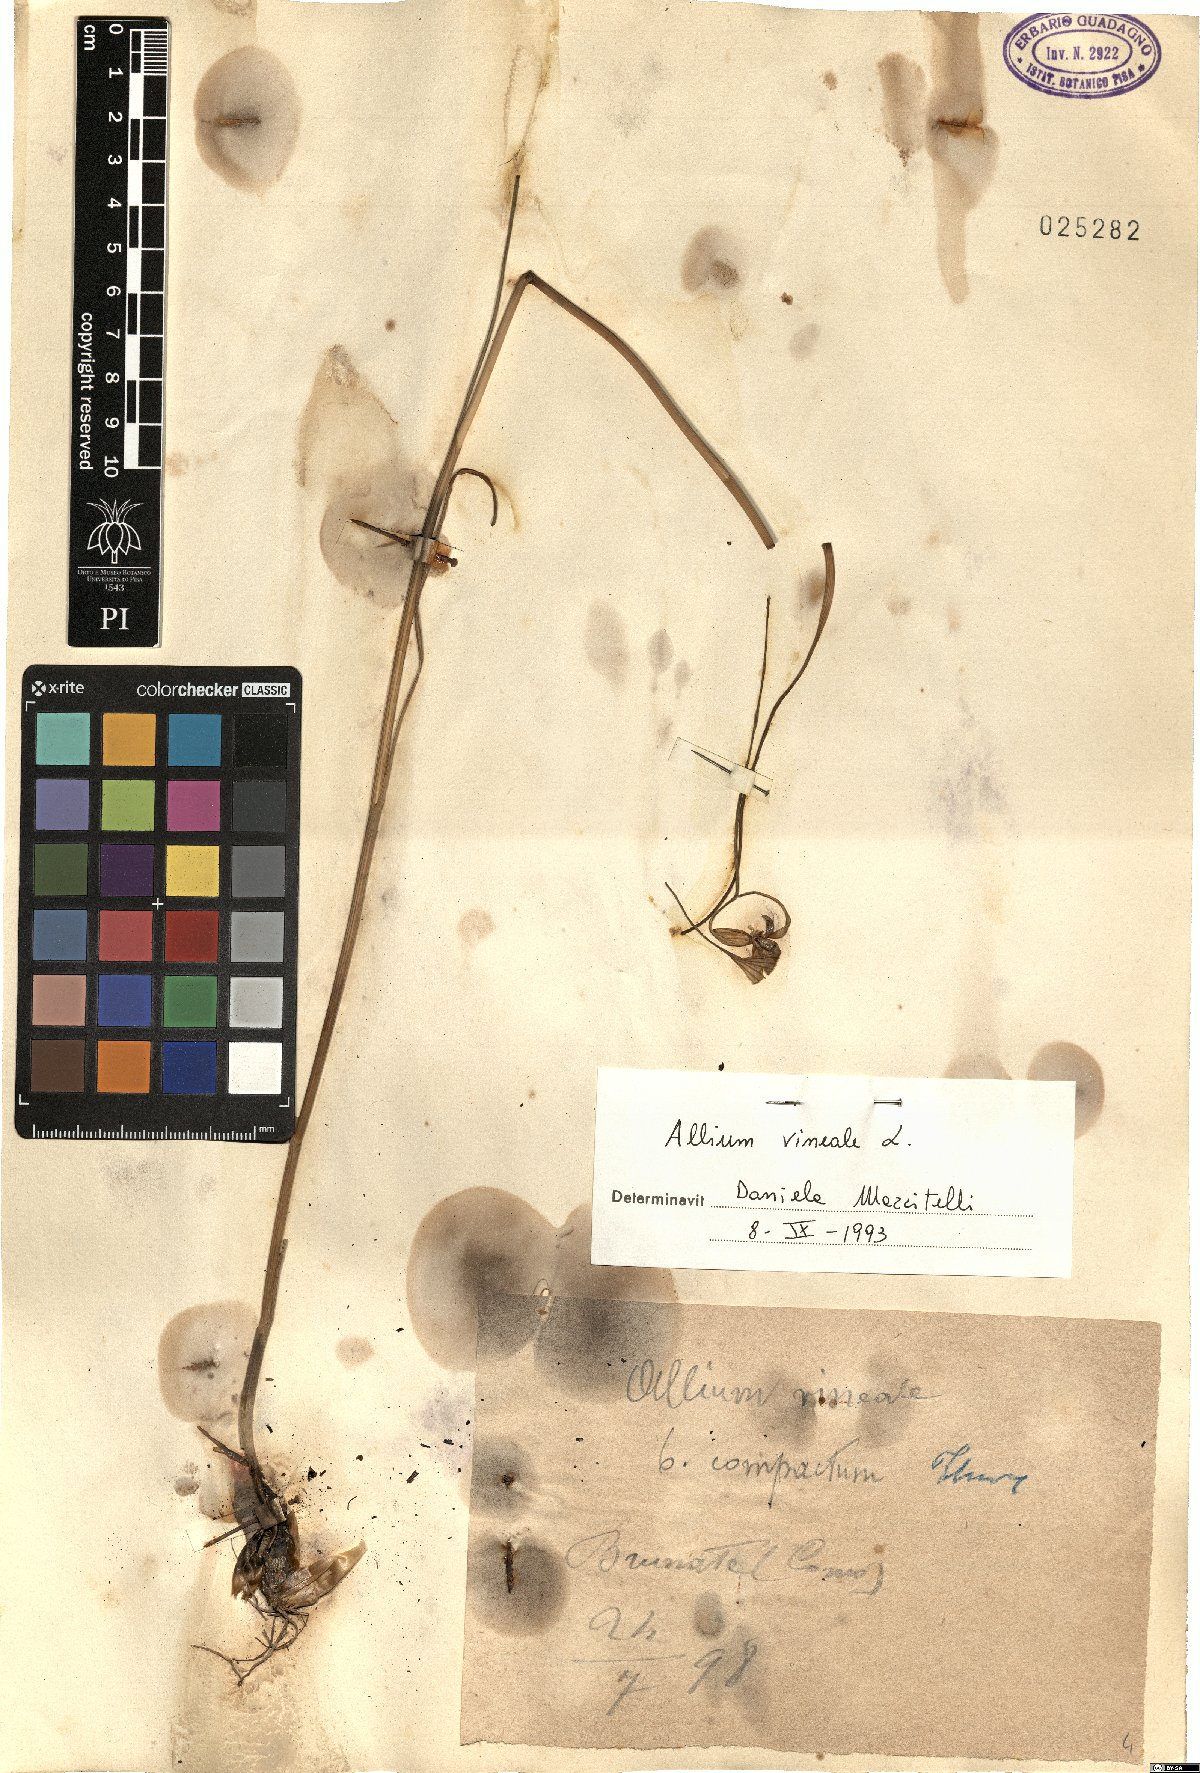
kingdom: Plantae
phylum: Tracheophyta
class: Liliopsida
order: Asparagales
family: Amaryllidaceae
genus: Allium
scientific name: Allium vineale
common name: Crow garlic
